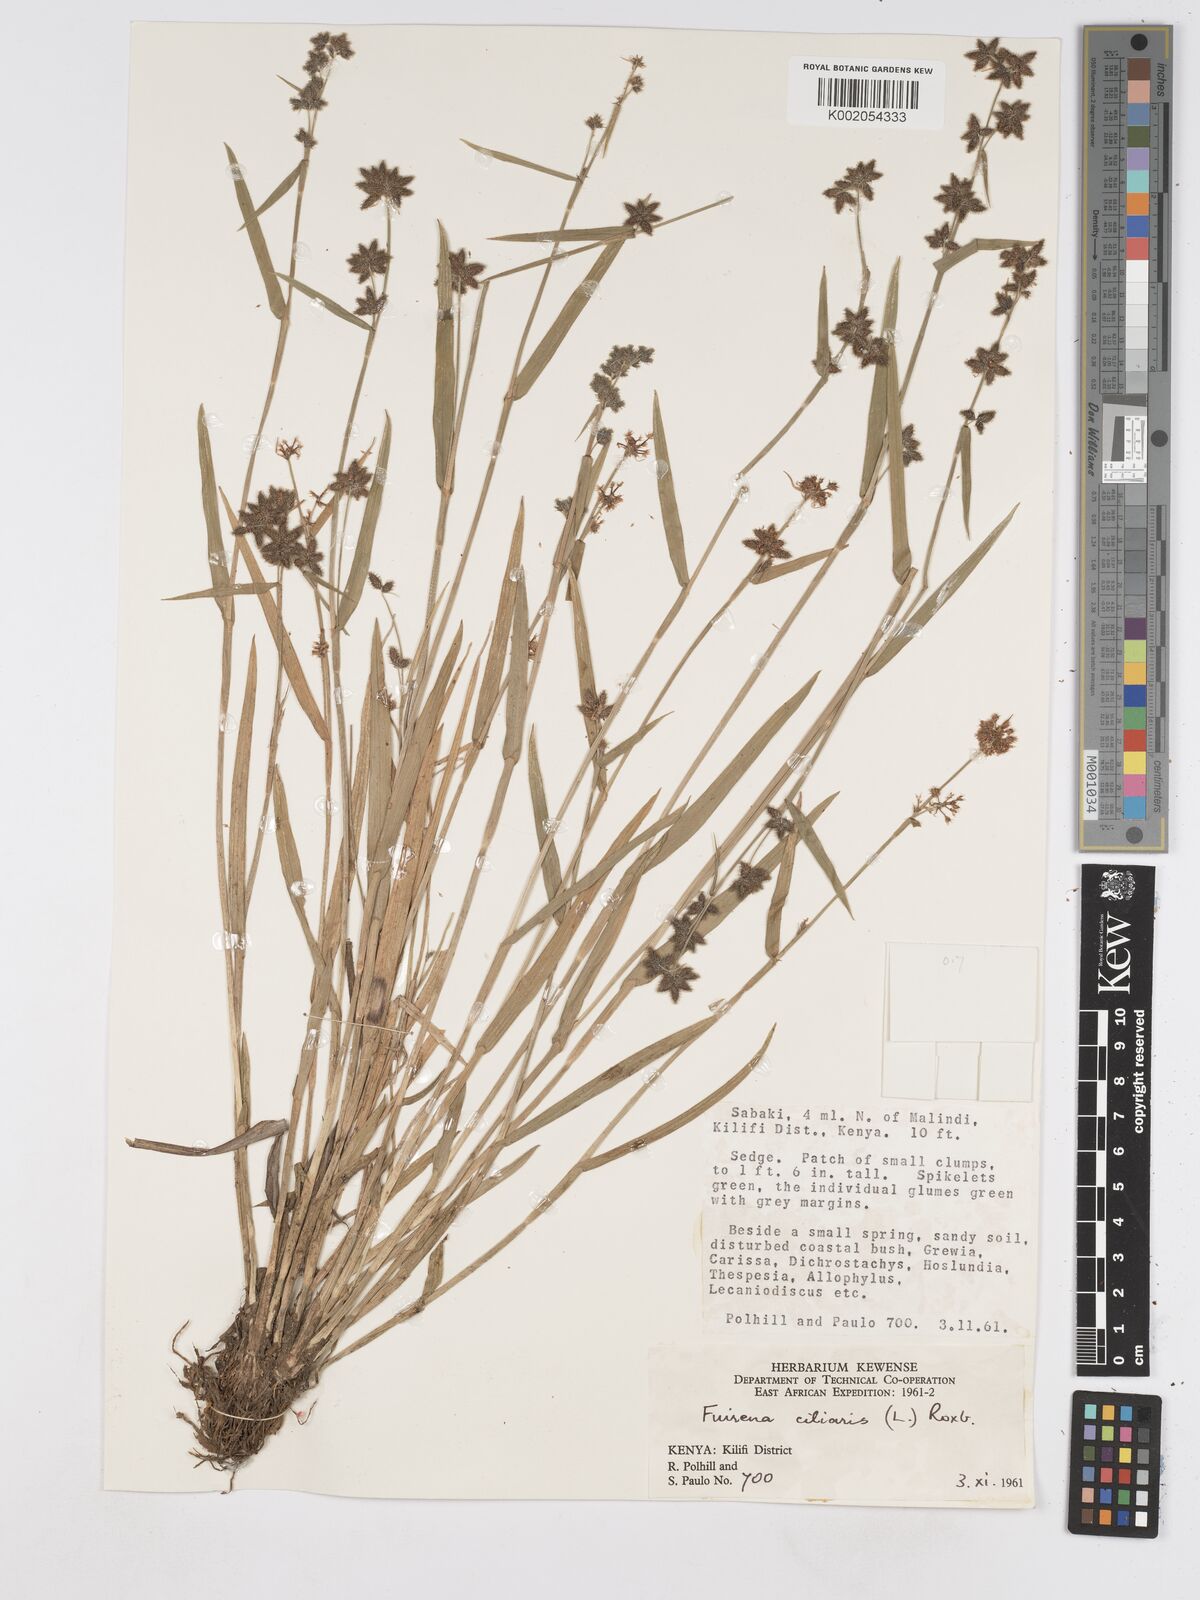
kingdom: Plantae
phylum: Tracheophyta
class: Liliopsida
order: Poales
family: Cyperaceae
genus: Fuirena
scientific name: Fuirena ciliaris
